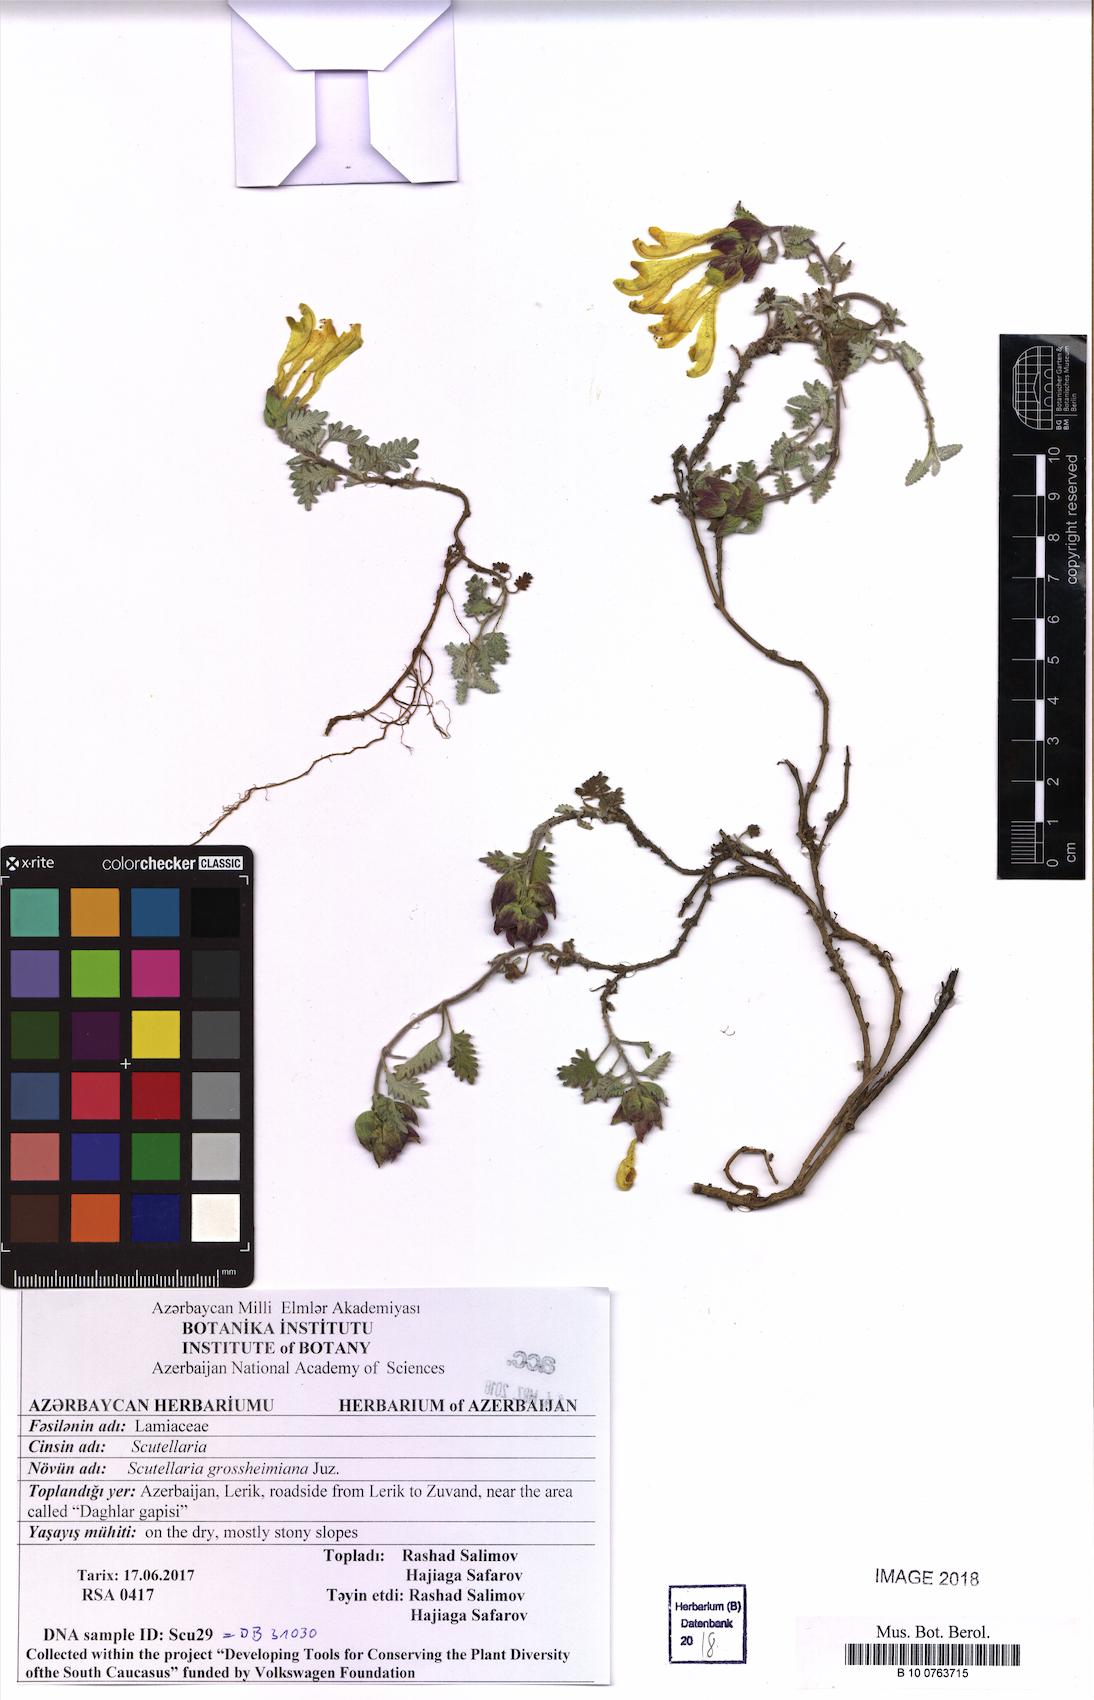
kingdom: Plantae
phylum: Tracheophyta
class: Magnoliopsida
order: Lamiales
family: Lamiaceae
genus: Scutellaria
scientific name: Scutellaria grossheimiana
